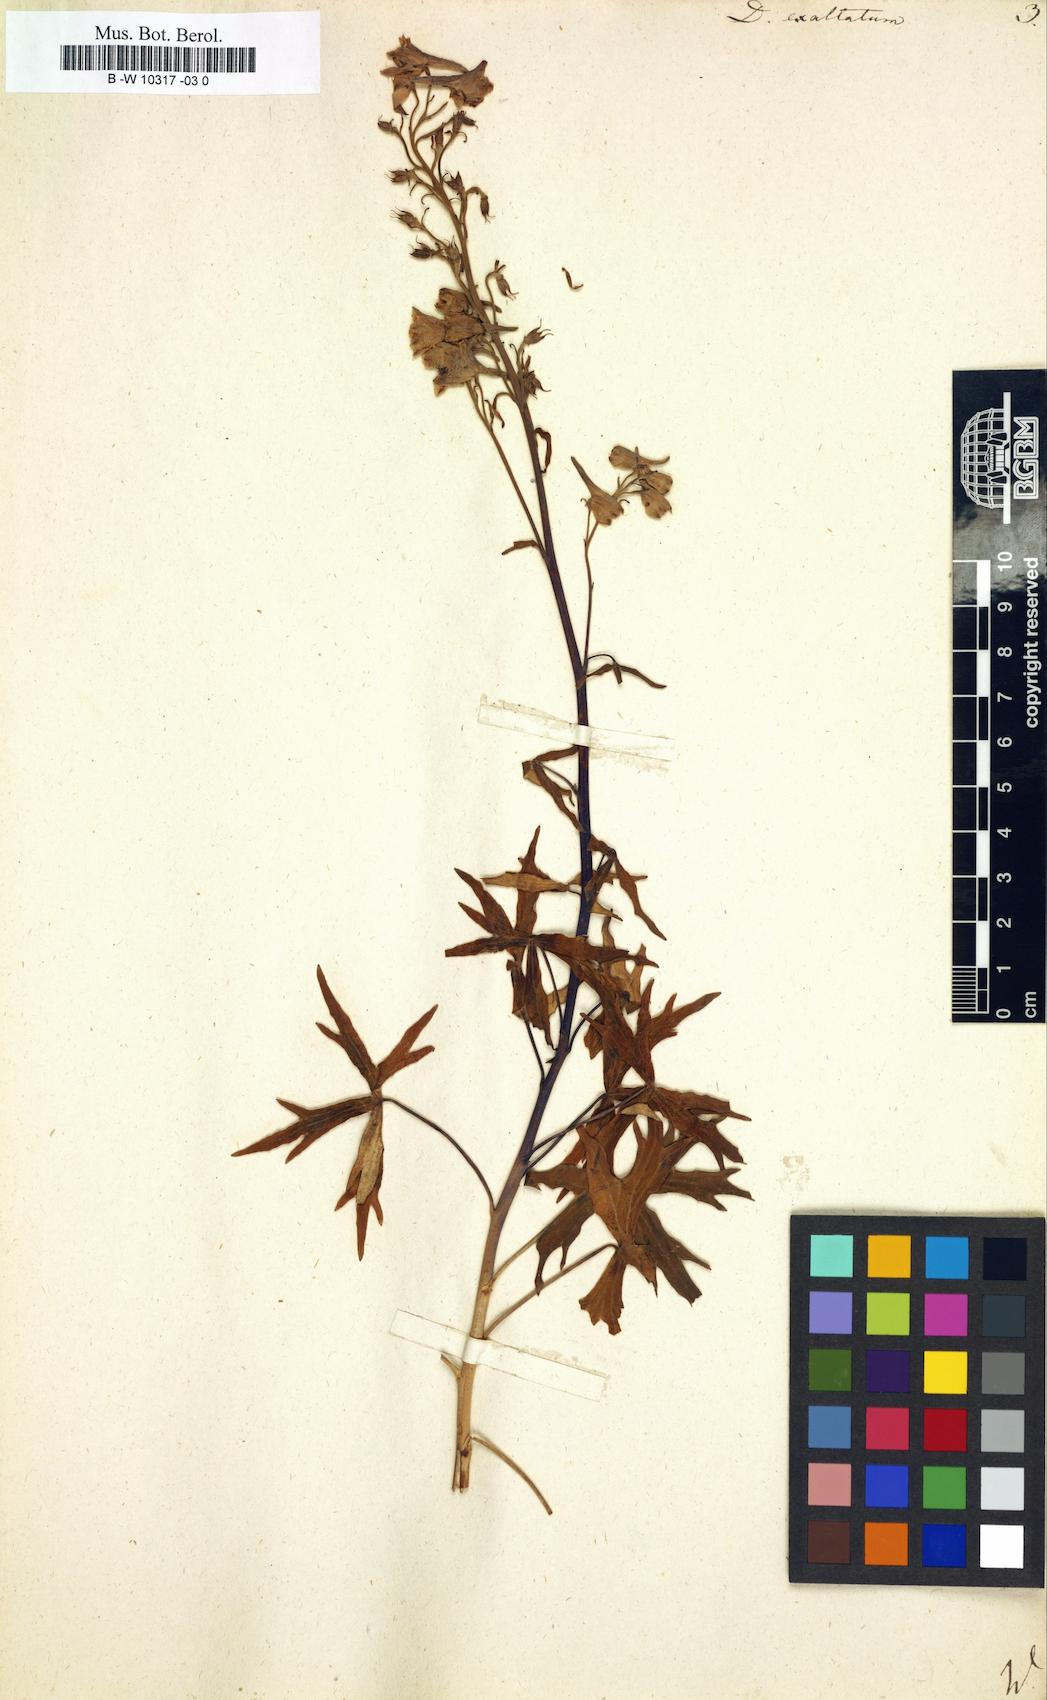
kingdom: Plantae
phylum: Tracheophyta
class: Magnoliopsida
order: Ranunculales
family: Ranunculaceae
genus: Delphinium
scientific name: Delphinium exaltatum
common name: Tall larkspur
